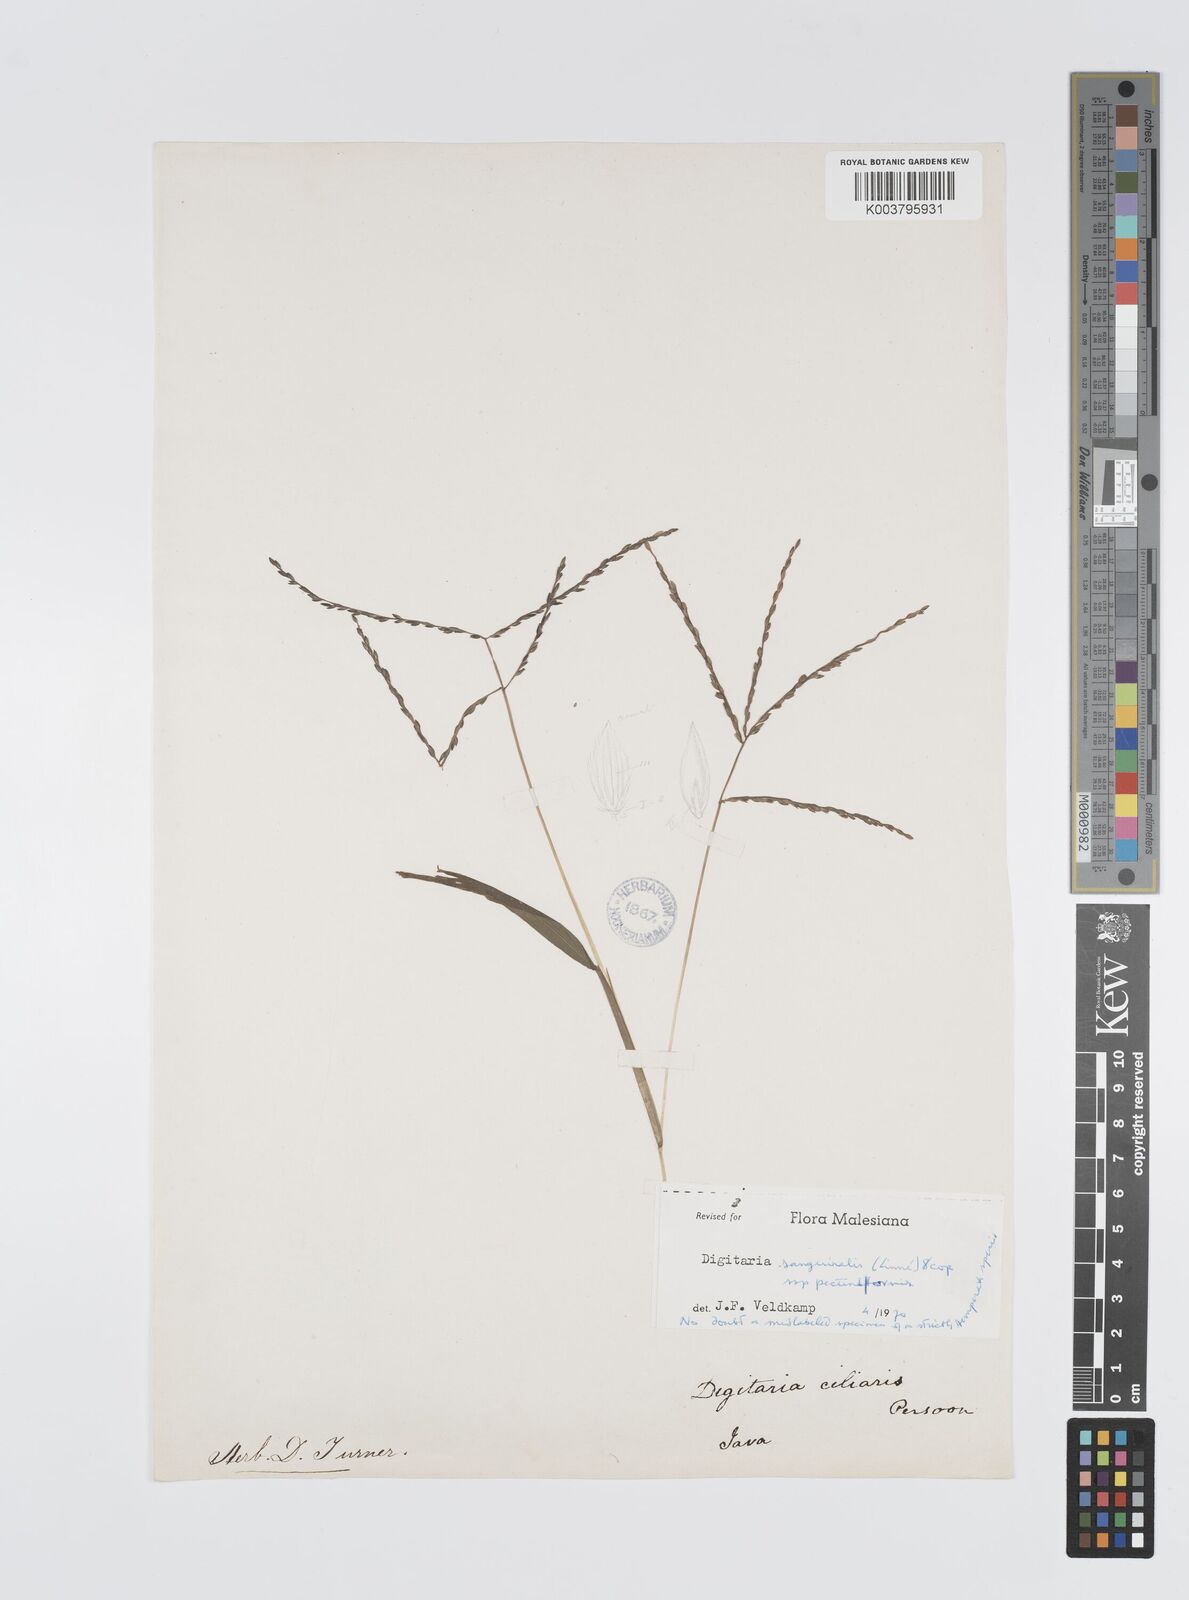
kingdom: Plantae
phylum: Tracheophyta
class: Liliopsida
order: Poales
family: Poaceae
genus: Digitaria
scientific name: Digitaria sanguinalis
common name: Hairy crabgrass
